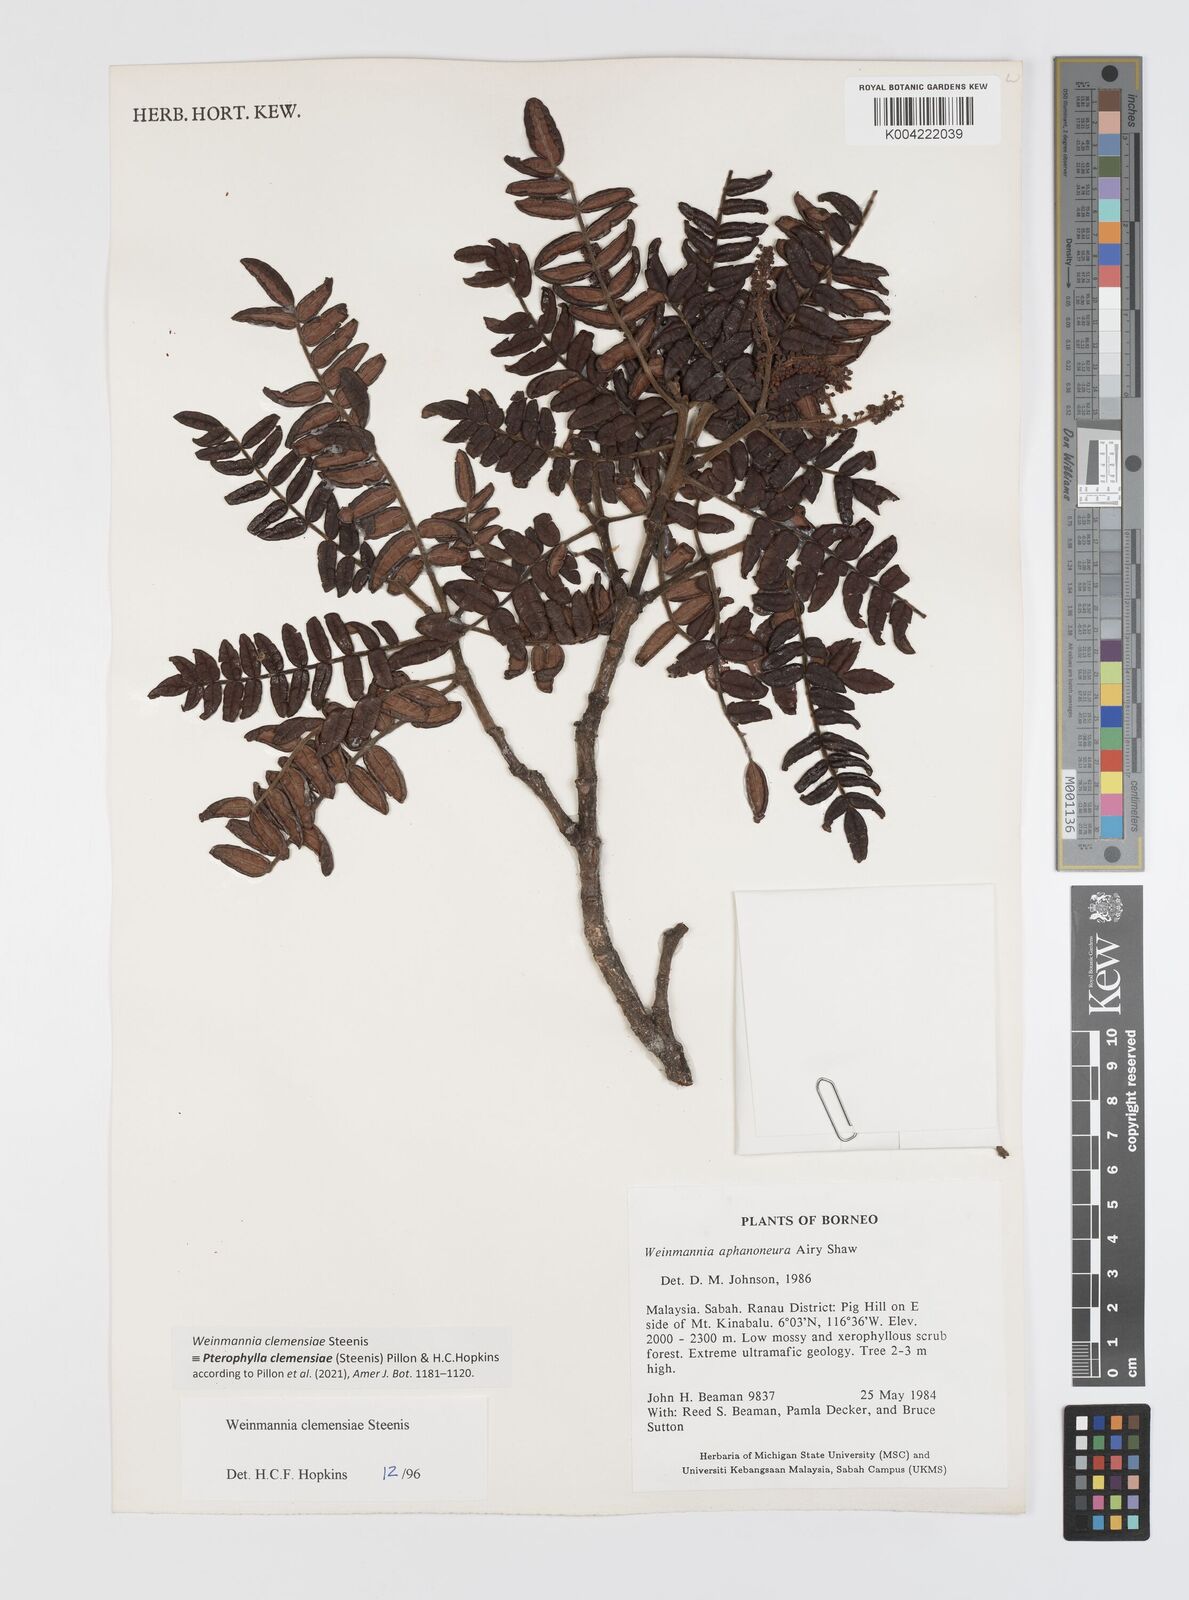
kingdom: Plantae
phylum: Tracheophyta
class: Magnoliopsida
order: Oxalidales
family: Cunoniaceae
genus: Pterophylla
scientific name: Pterophylla clemensiae
